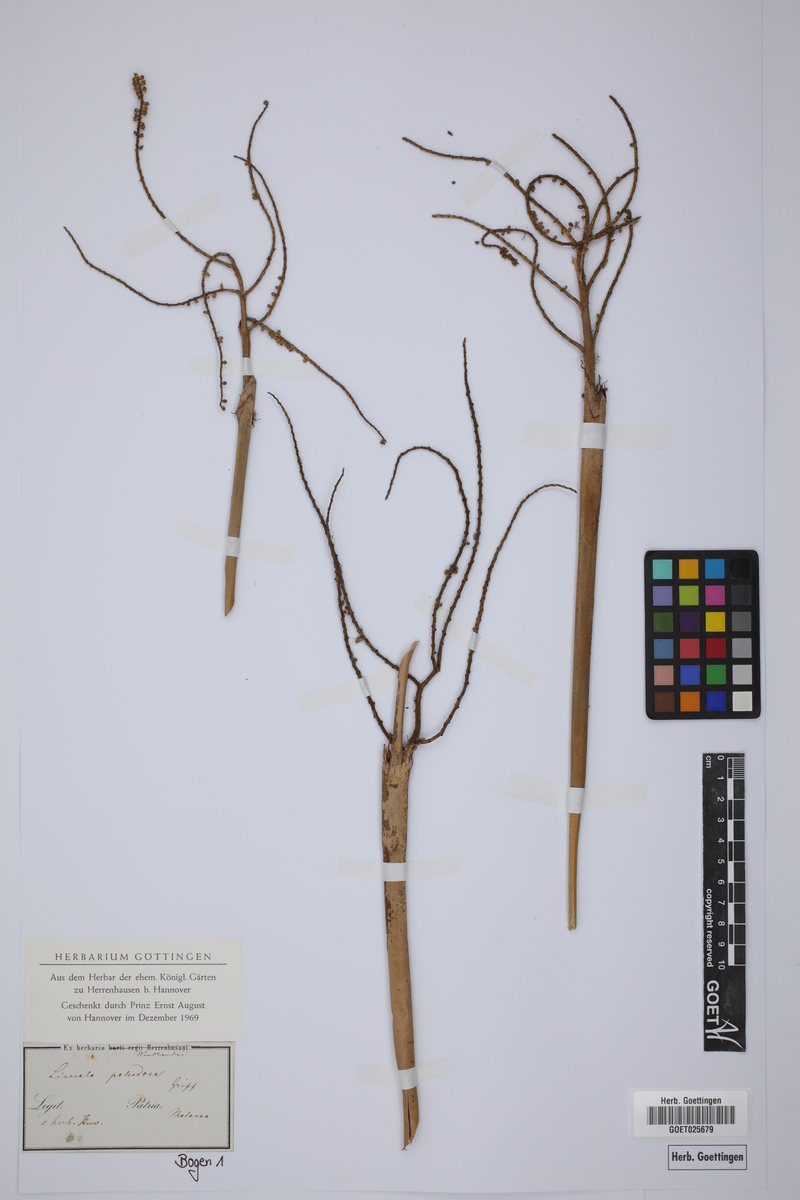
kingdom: Plantae
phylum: Tracheophyta
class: Liliopsida
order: Arecales
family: Arecaceae
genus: Licuala
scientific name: Licuala paludosa
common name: Swamp fan palm
